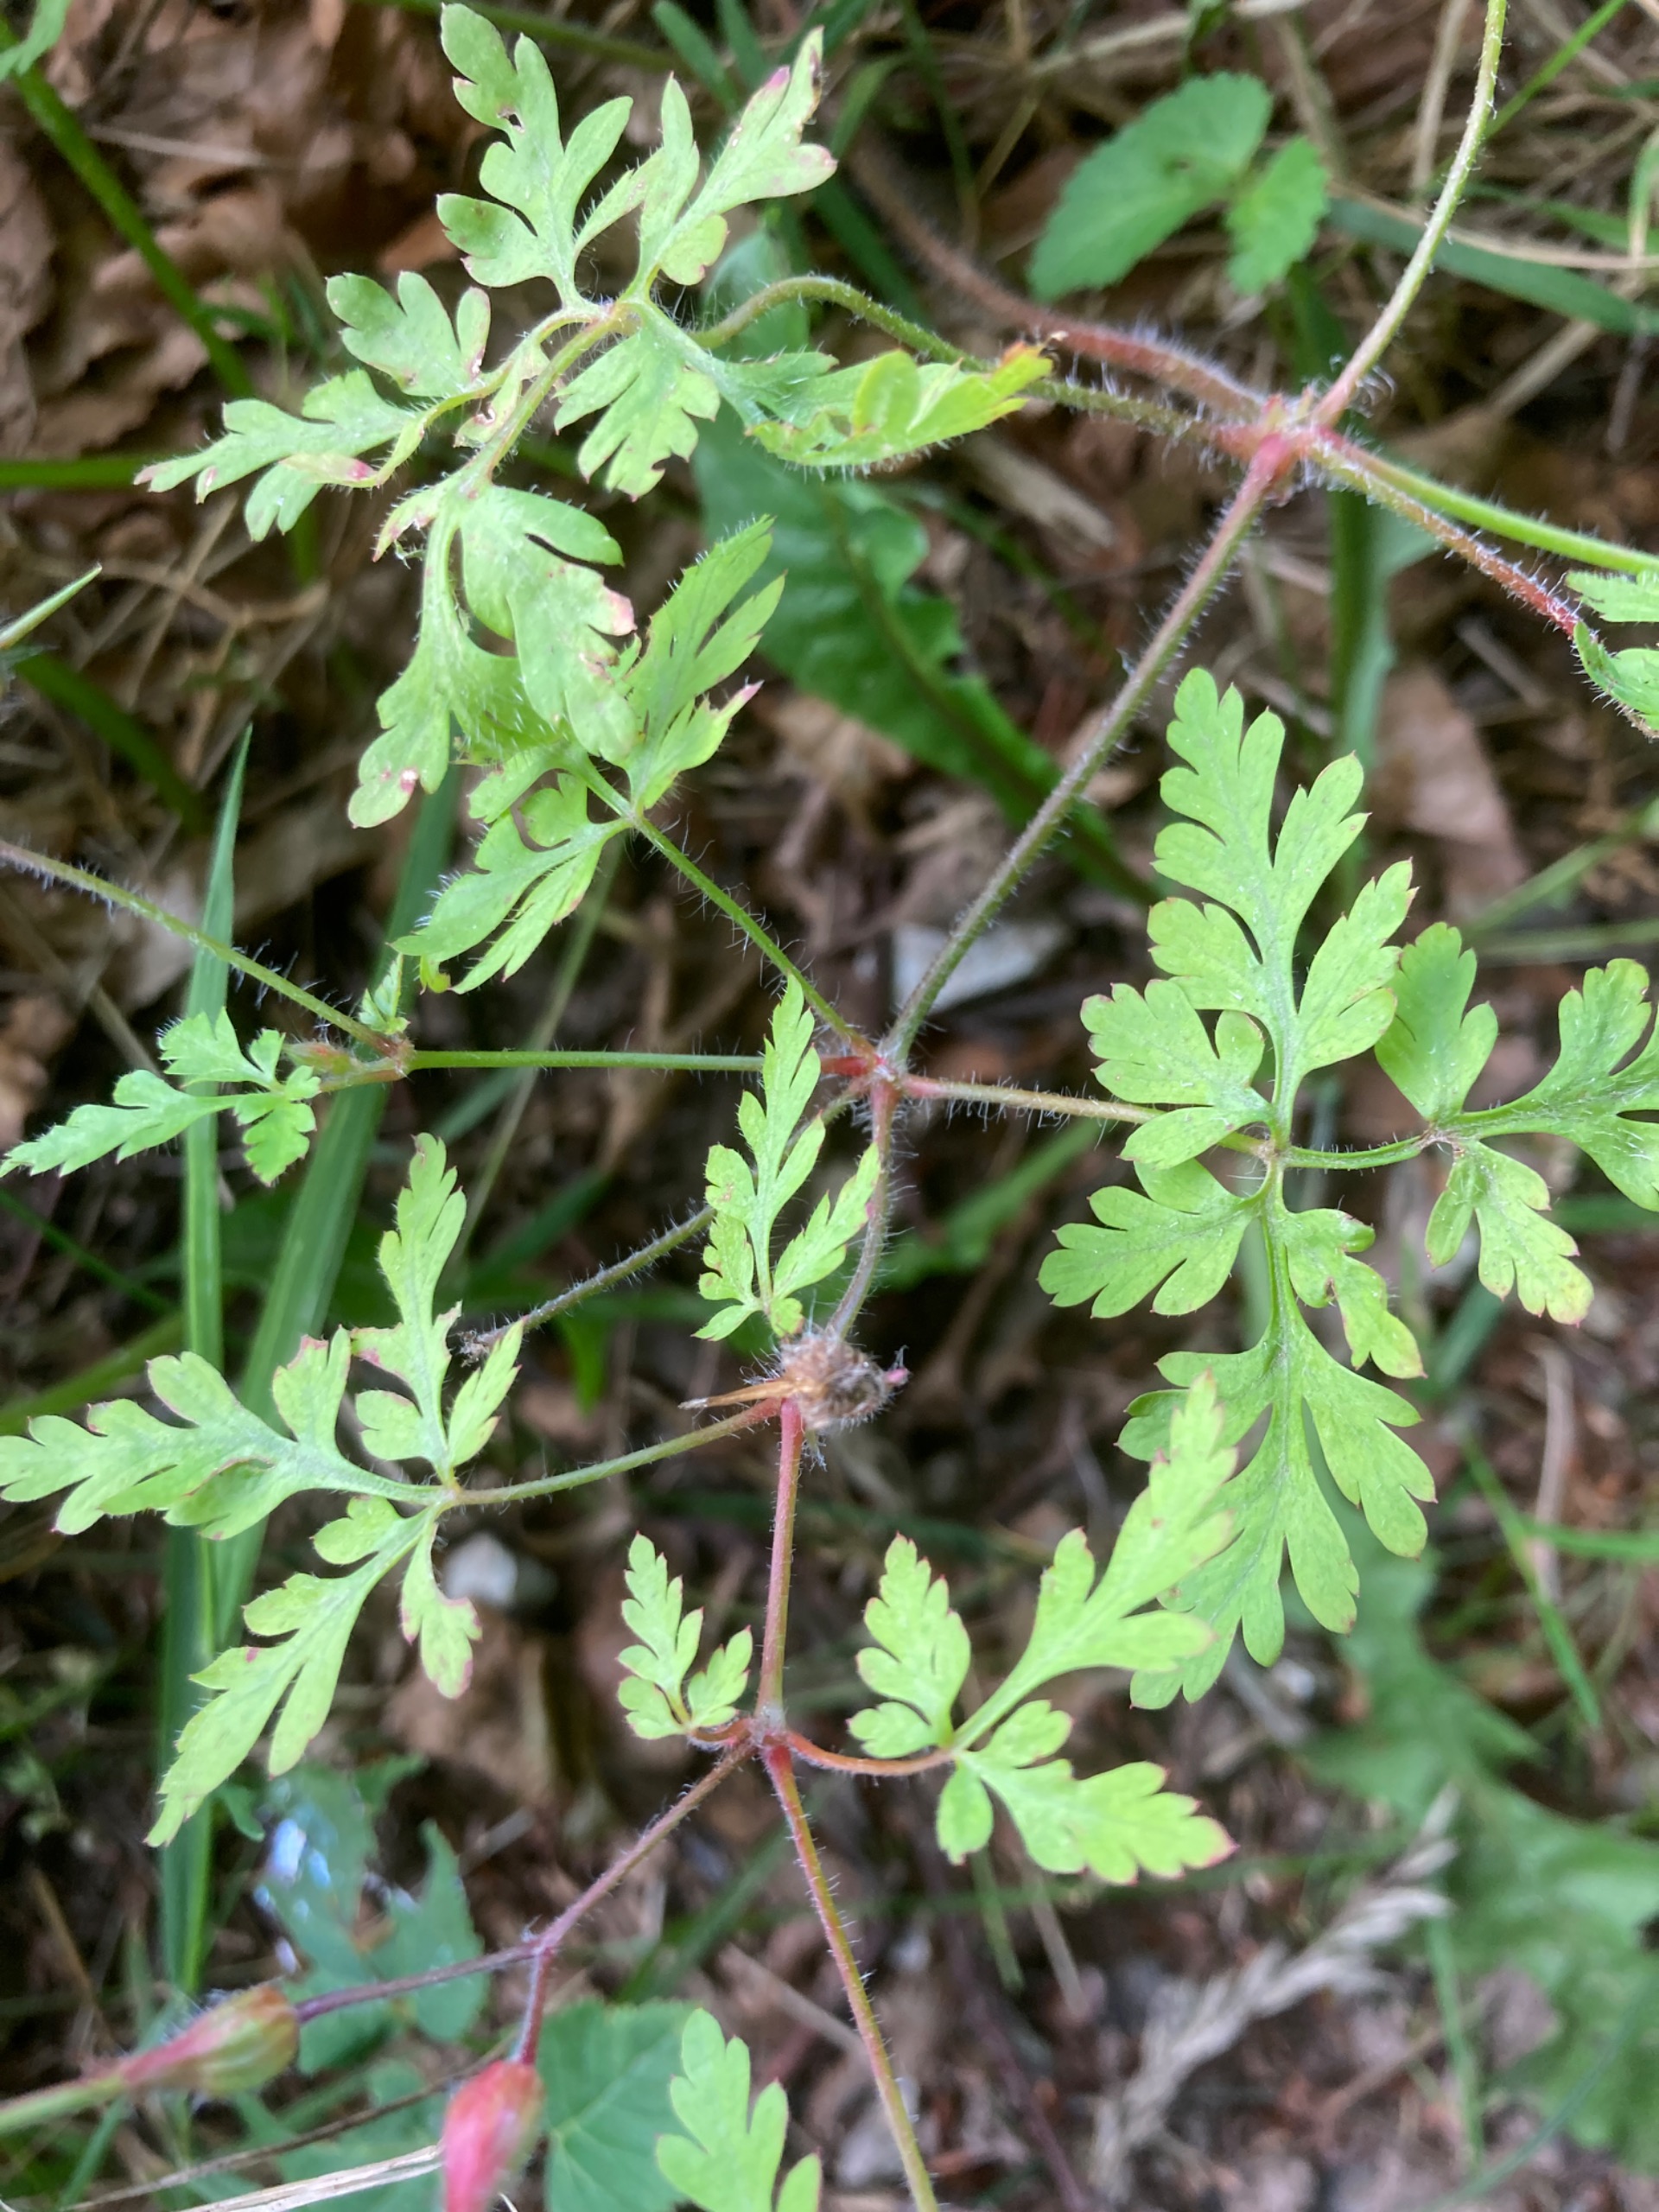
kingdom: Plantae
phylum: Tracheophyta
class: Magnoliopsida
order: Geraniales
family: Geraniaceae
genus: Geranium
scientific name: Geranium robertianum
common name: Stinkende storkenæb
